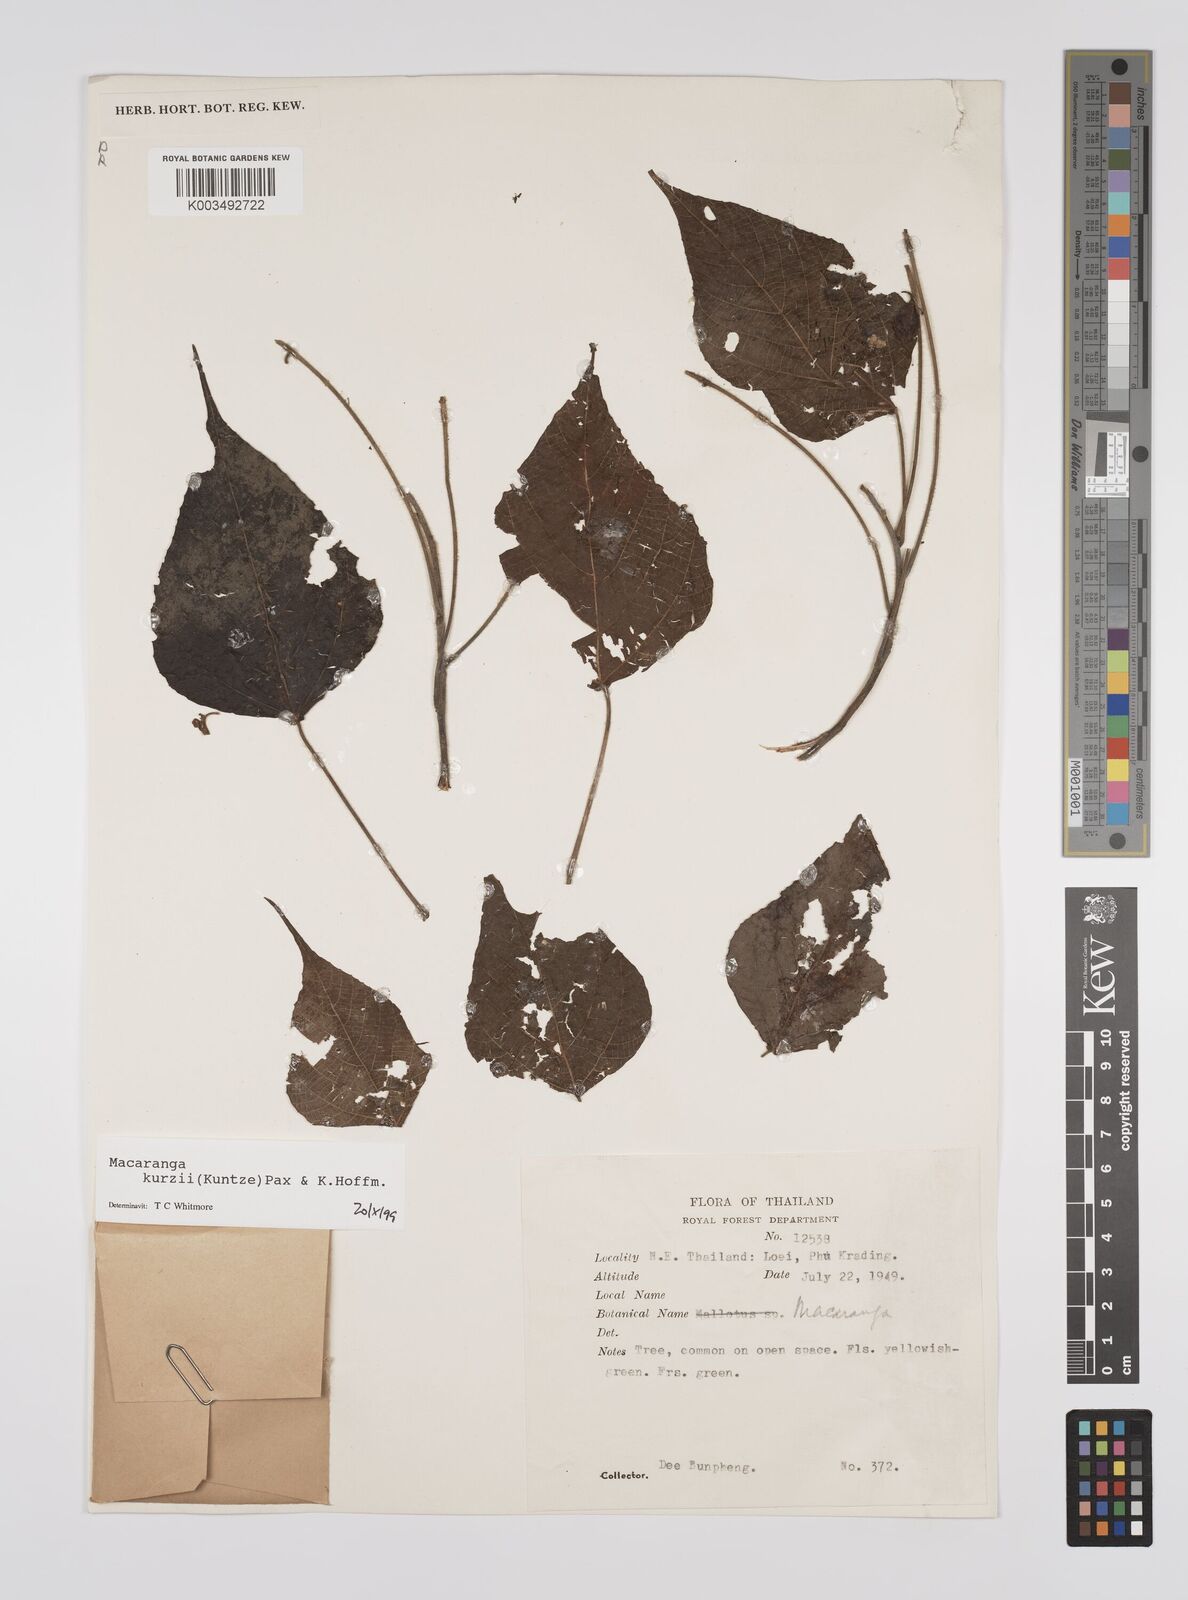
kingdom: Plantae
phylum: Tracheophyta
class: Magnoliopsida
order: Malpighiales
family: Euphorbiaceae
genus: Macaranga
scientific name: Macaranga kurzii
